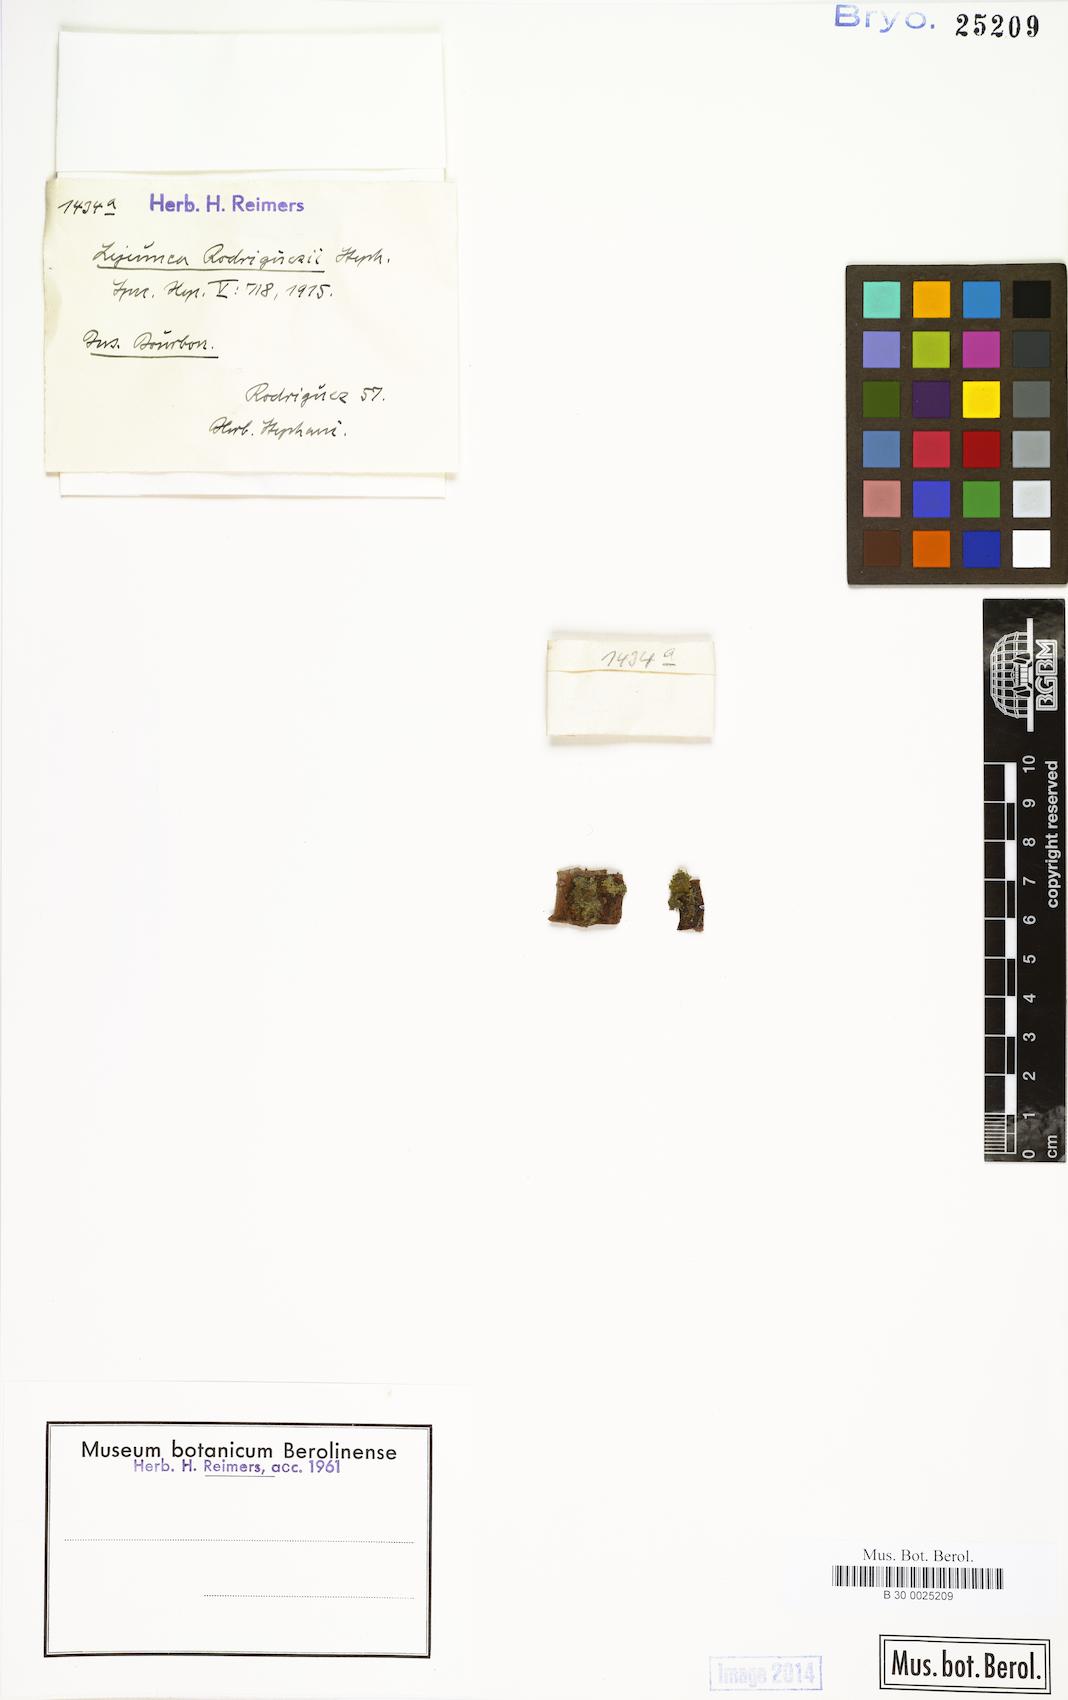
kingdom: Plantae
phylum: Marchantiophyta
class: Jungermanniopsida
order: Porellales
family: Lejeuneaceae
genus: Lejeunea
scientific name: Lejeunea adpressa
